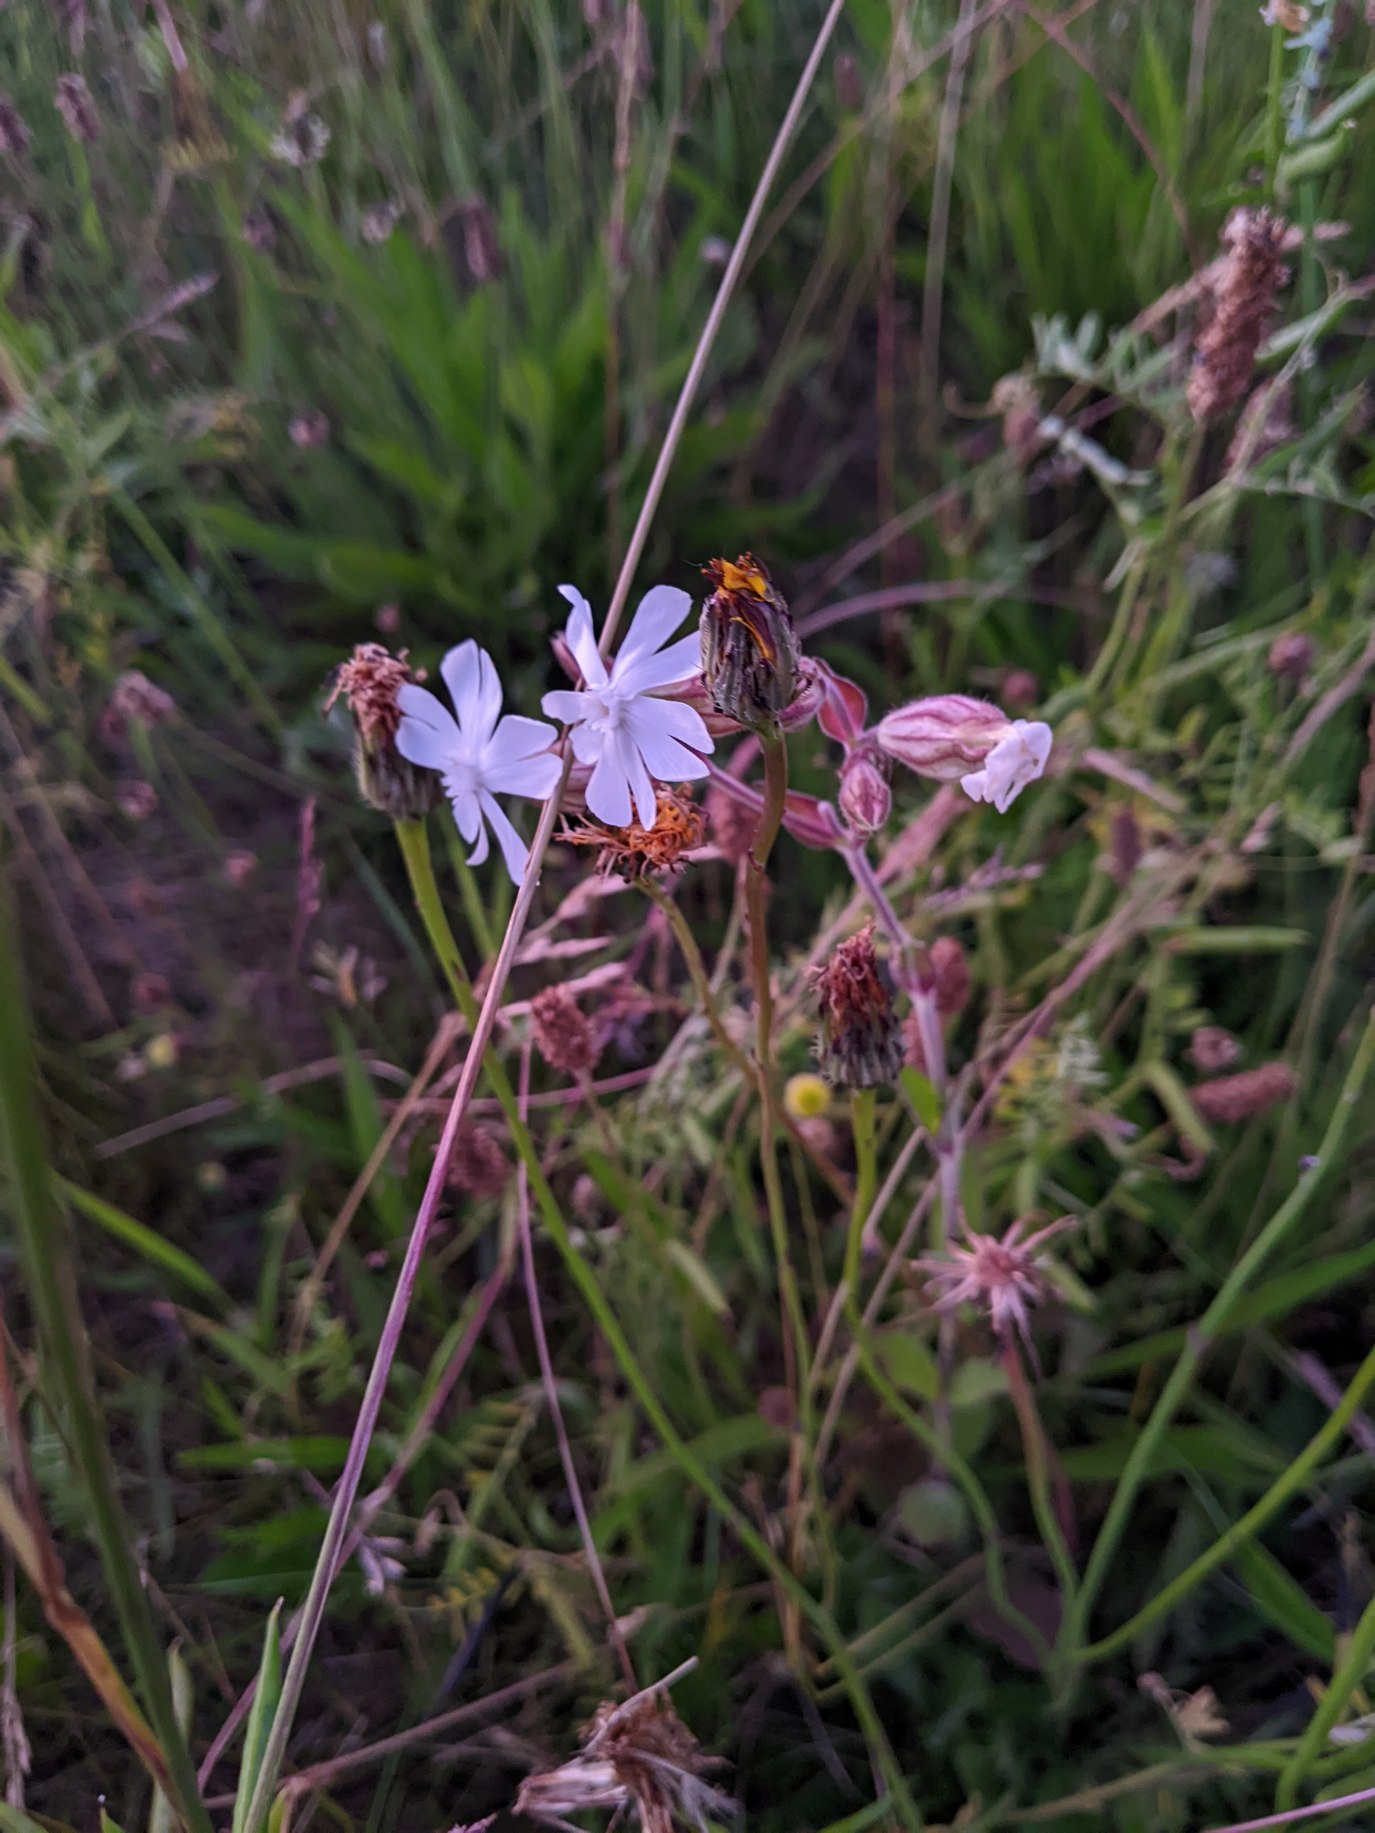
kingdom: Plantae
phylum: Tracheophyta
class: Magnoliopsida
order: Caryophyllales
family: Caryophyllaceae
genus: Silene
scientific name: Silene latifolia
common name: Aftenpragtstjerne
